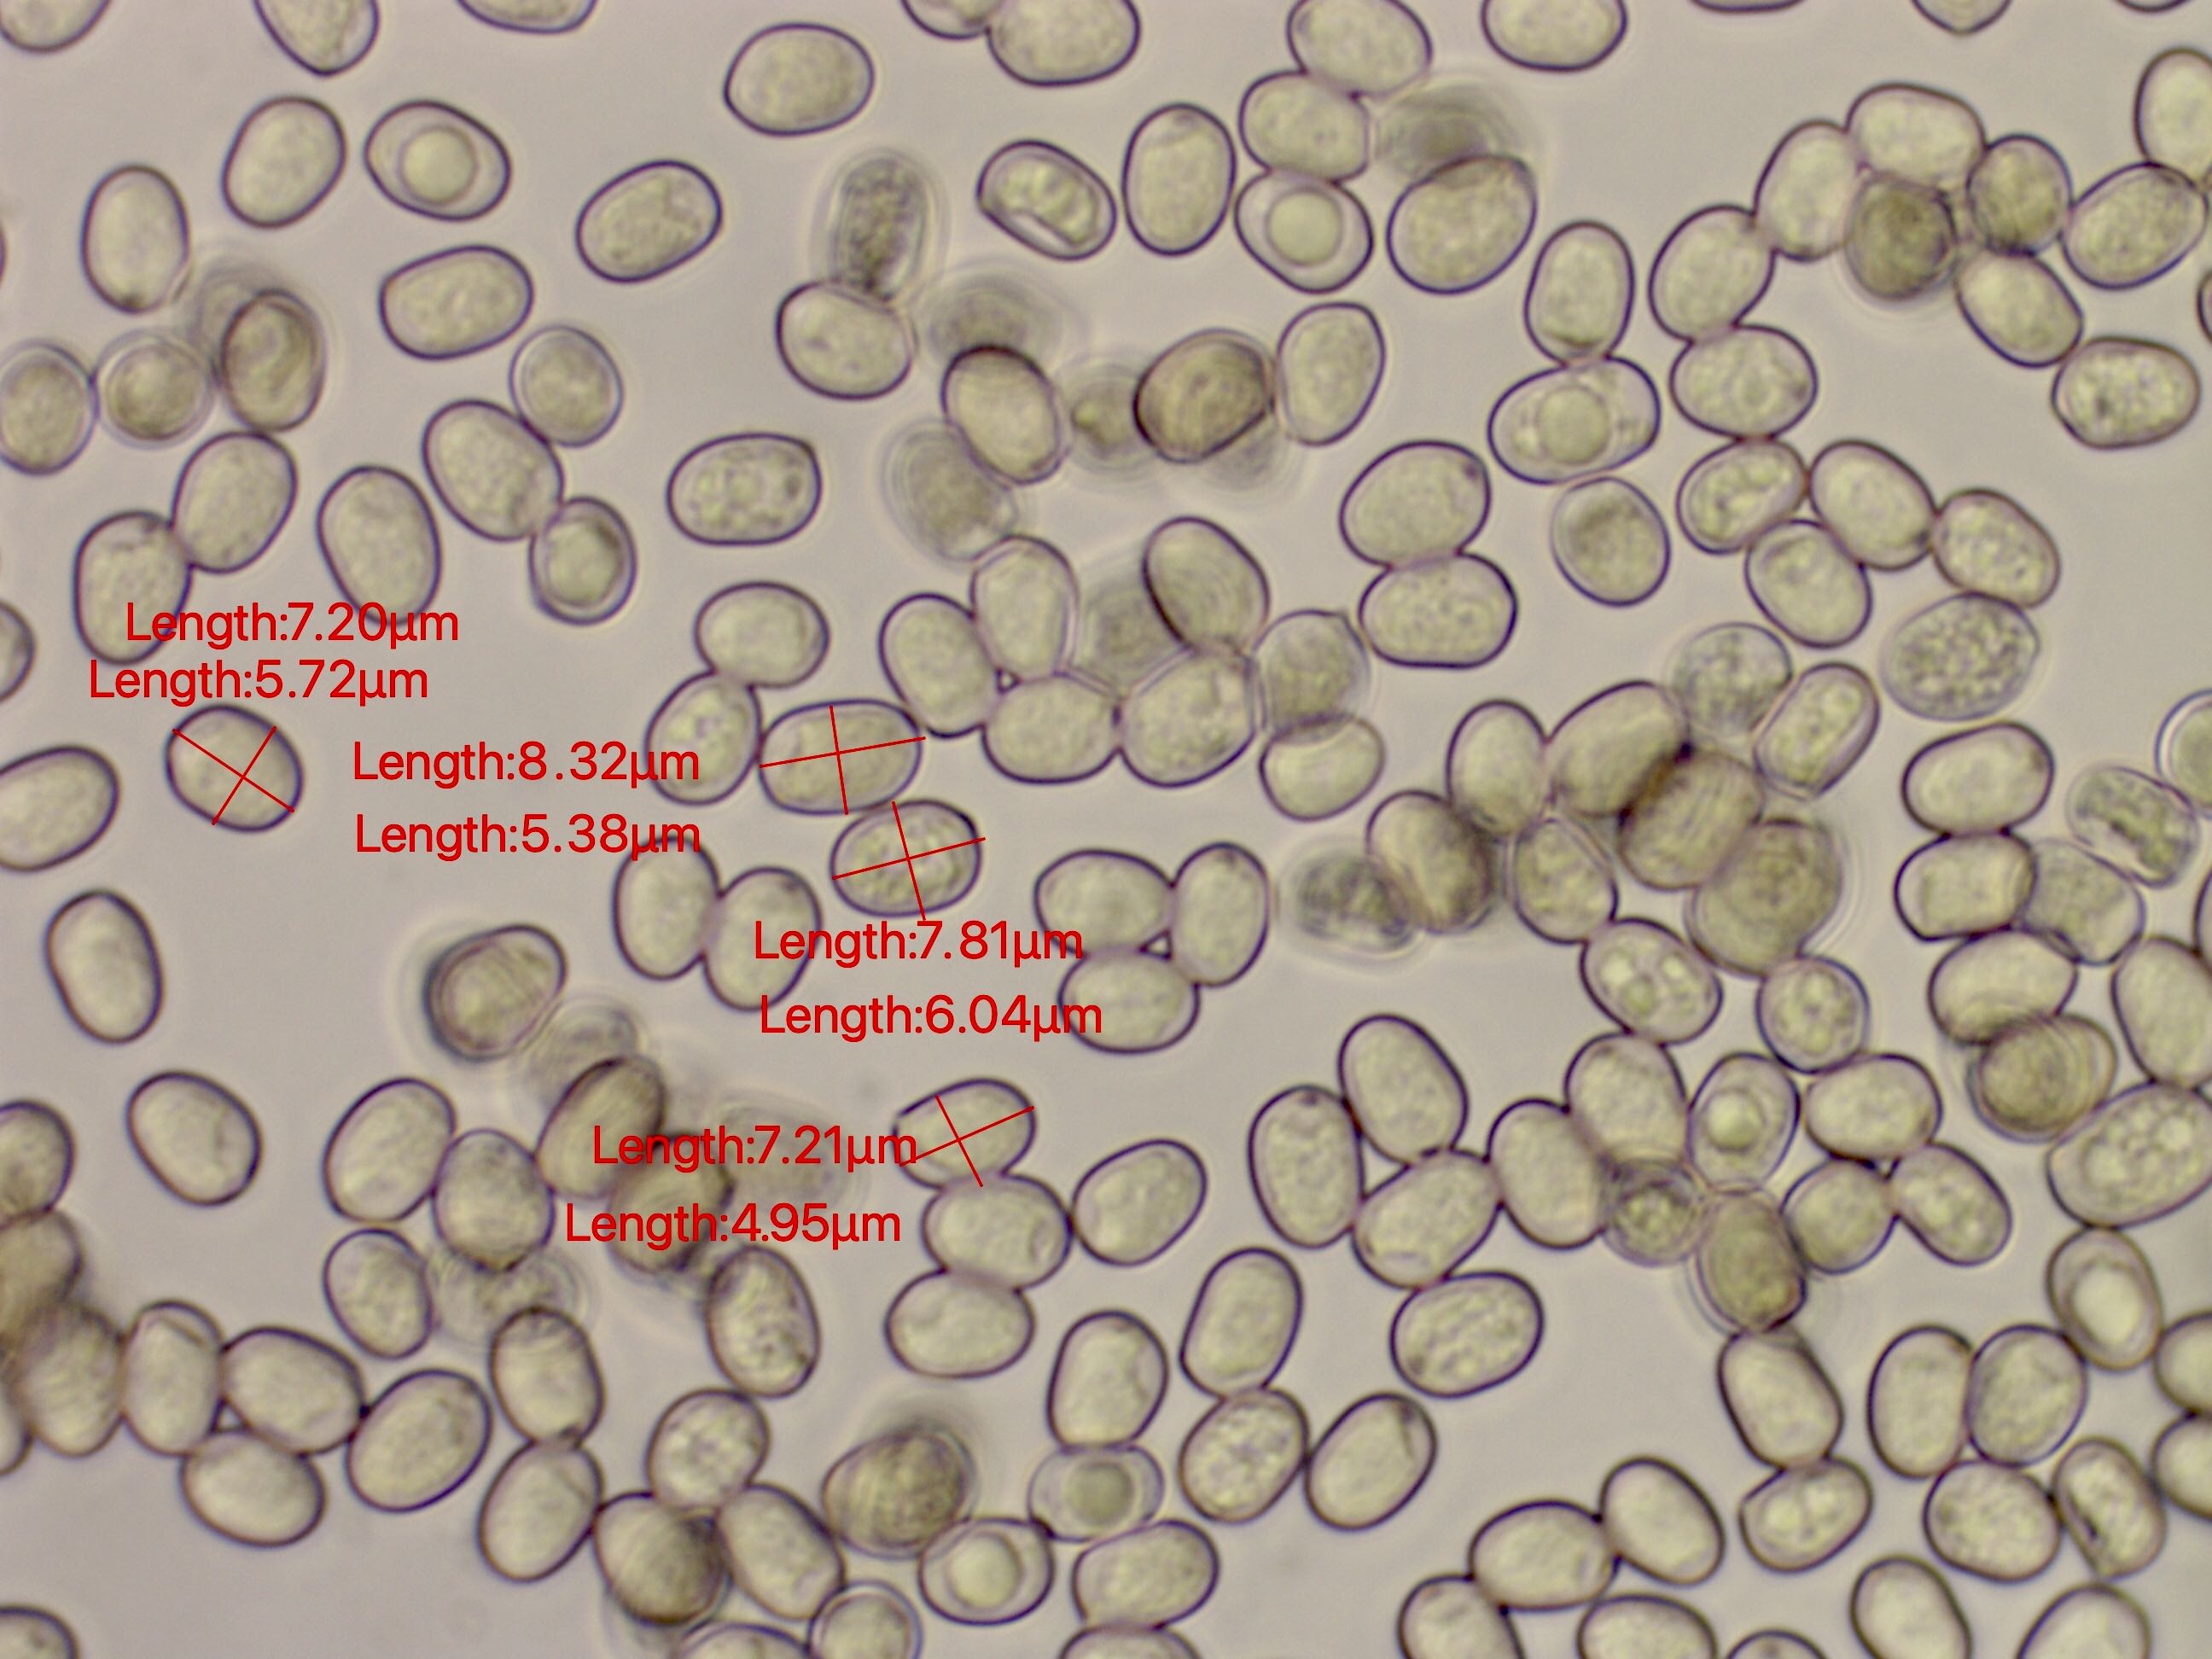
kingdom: Fungi
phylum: Basidiomycota
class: Agaricomycetes
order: Agaricales
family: Pluteaceae
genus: Pluteus
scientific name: Pluteus salicinus
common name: stiv skærmhat
